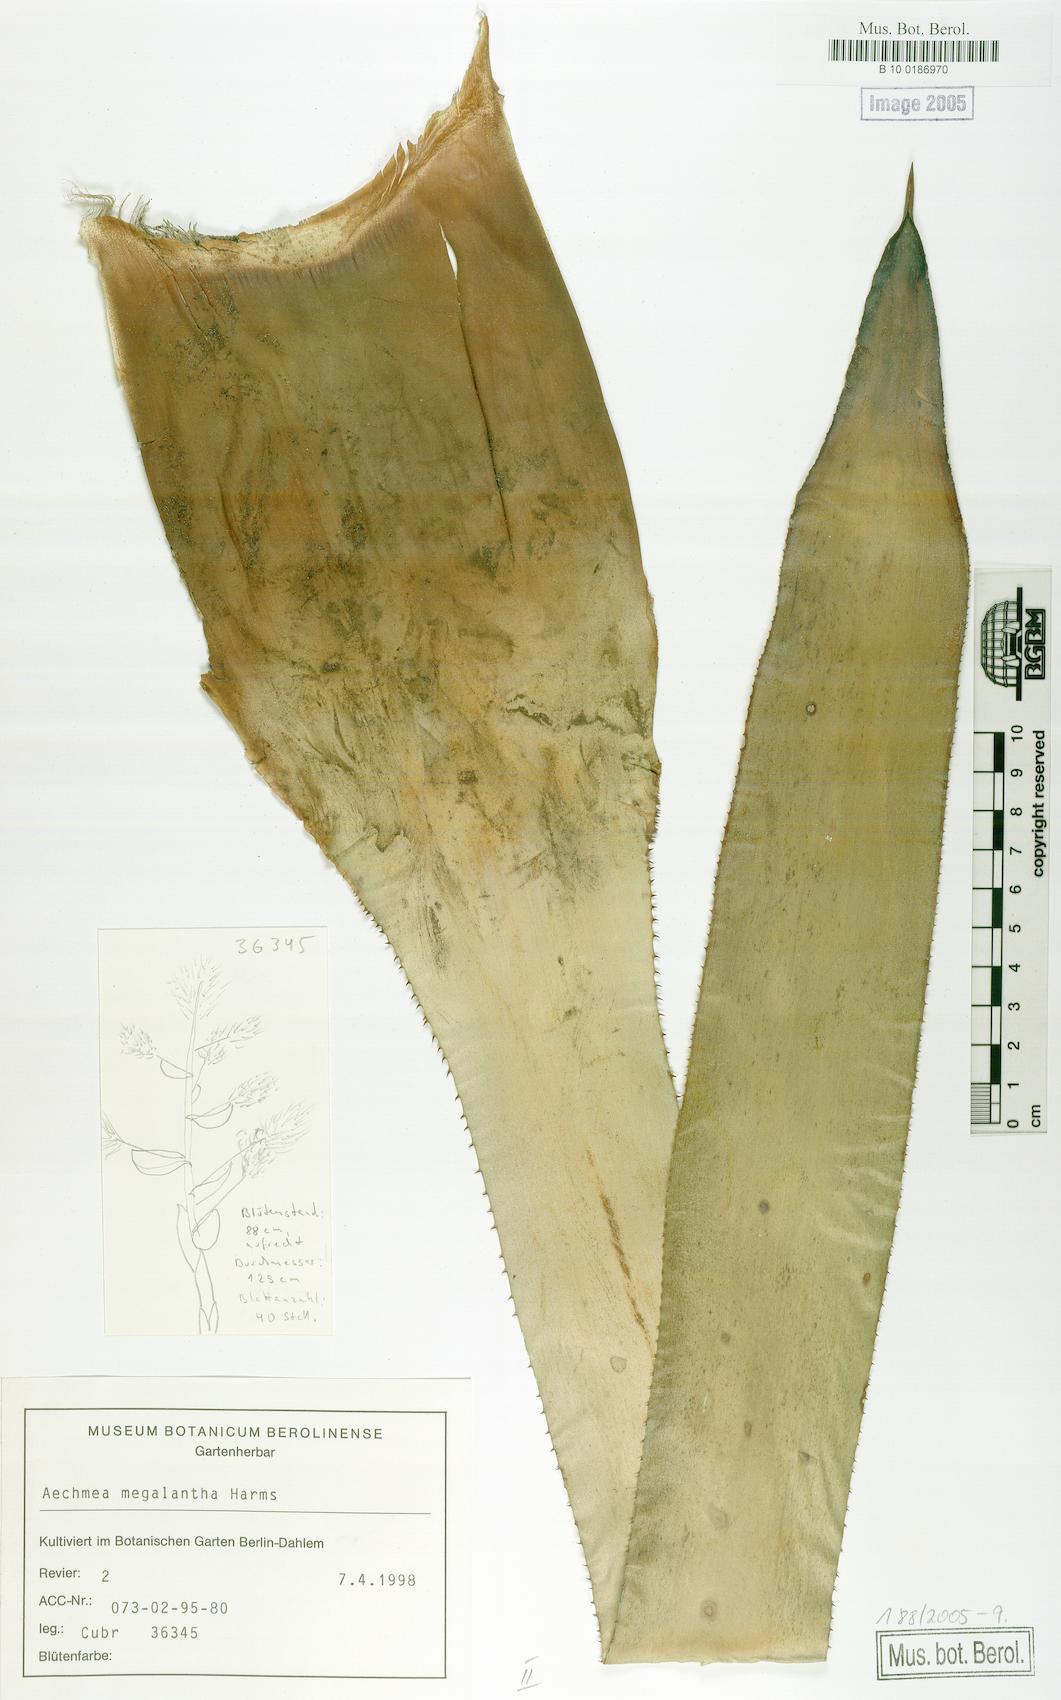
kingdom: Plantae
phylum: Tracheophyta
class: Liliopsida
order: Poales
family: Bromeliaceae
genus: Aechmea
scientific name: Aechmea costantinii
